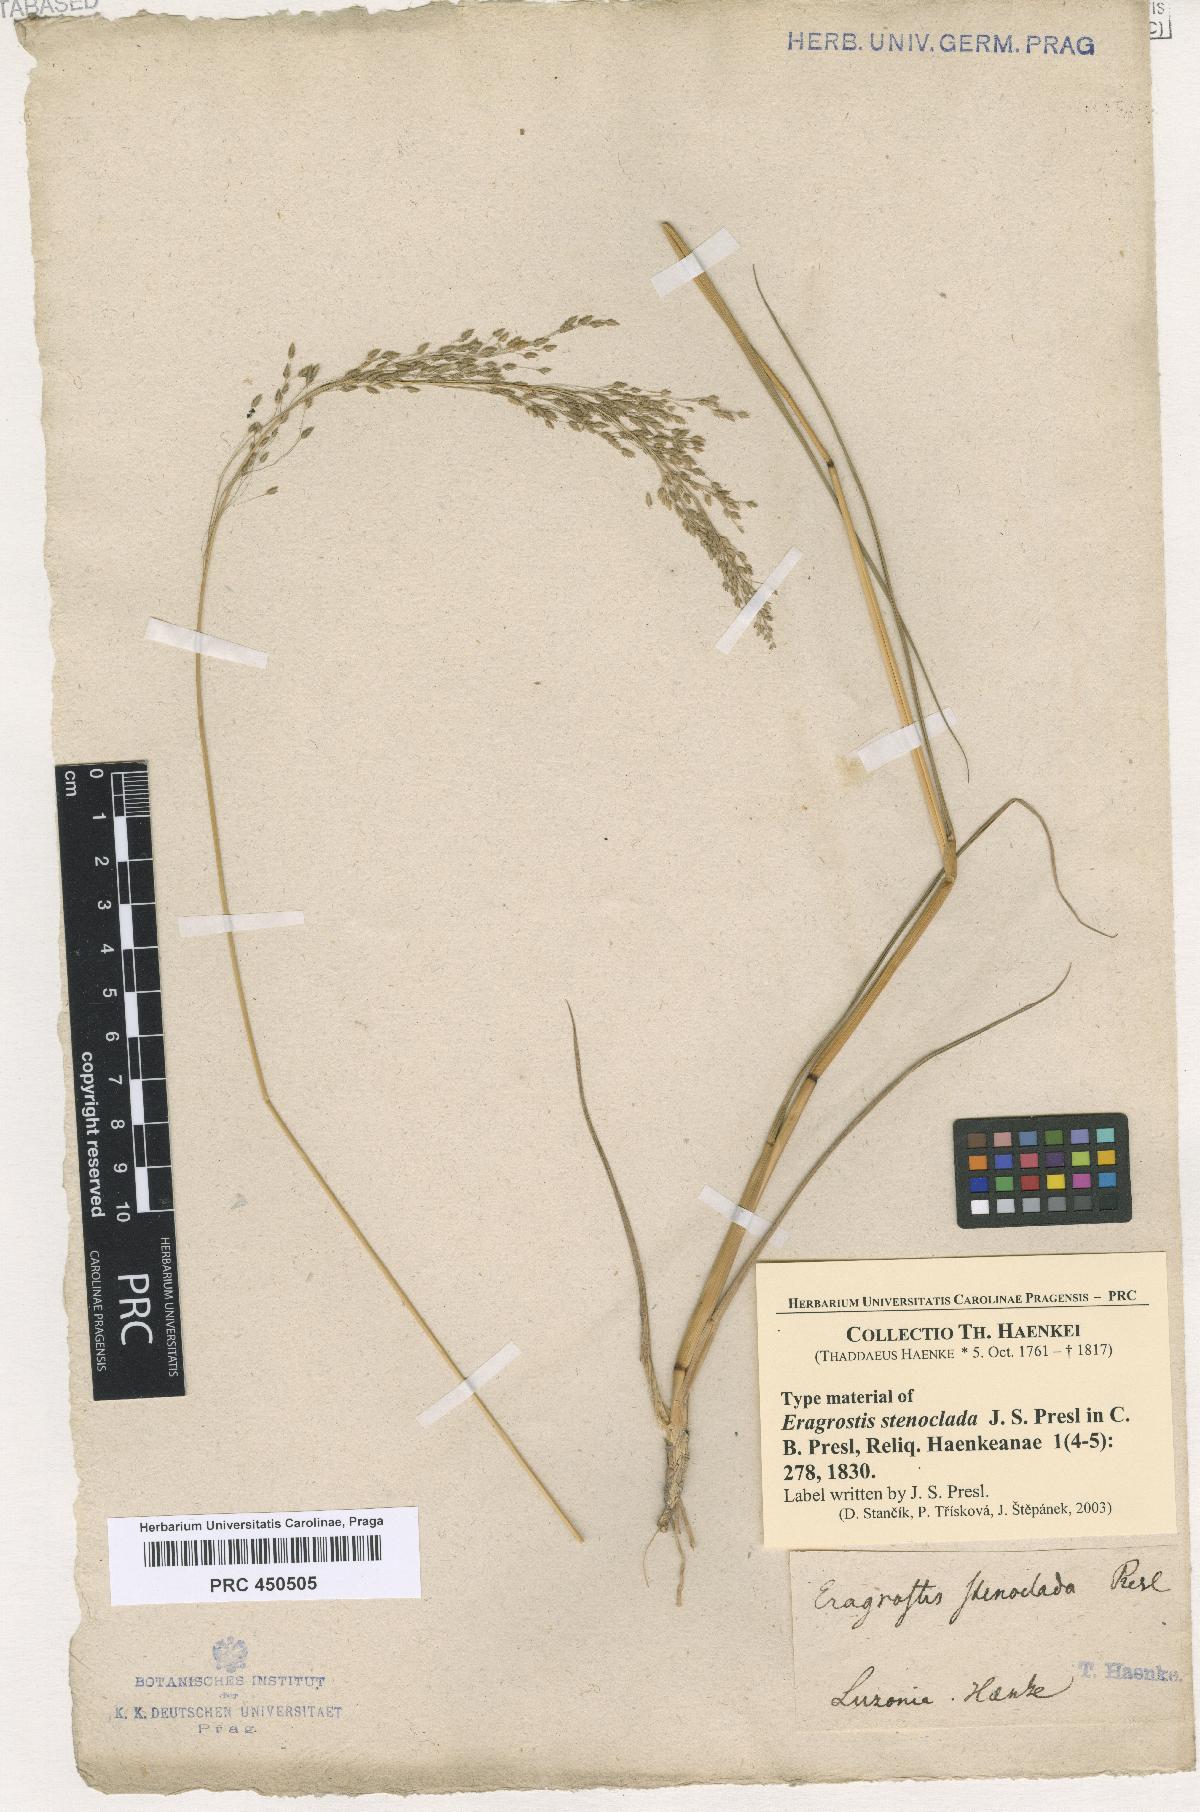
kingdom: Plantae
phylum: Tracheophyta
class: Liliopsida
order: Poales
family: Poaceae
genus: Eragrostis
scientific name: Eragrostis gangetica
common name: Slimflower lovegrass
